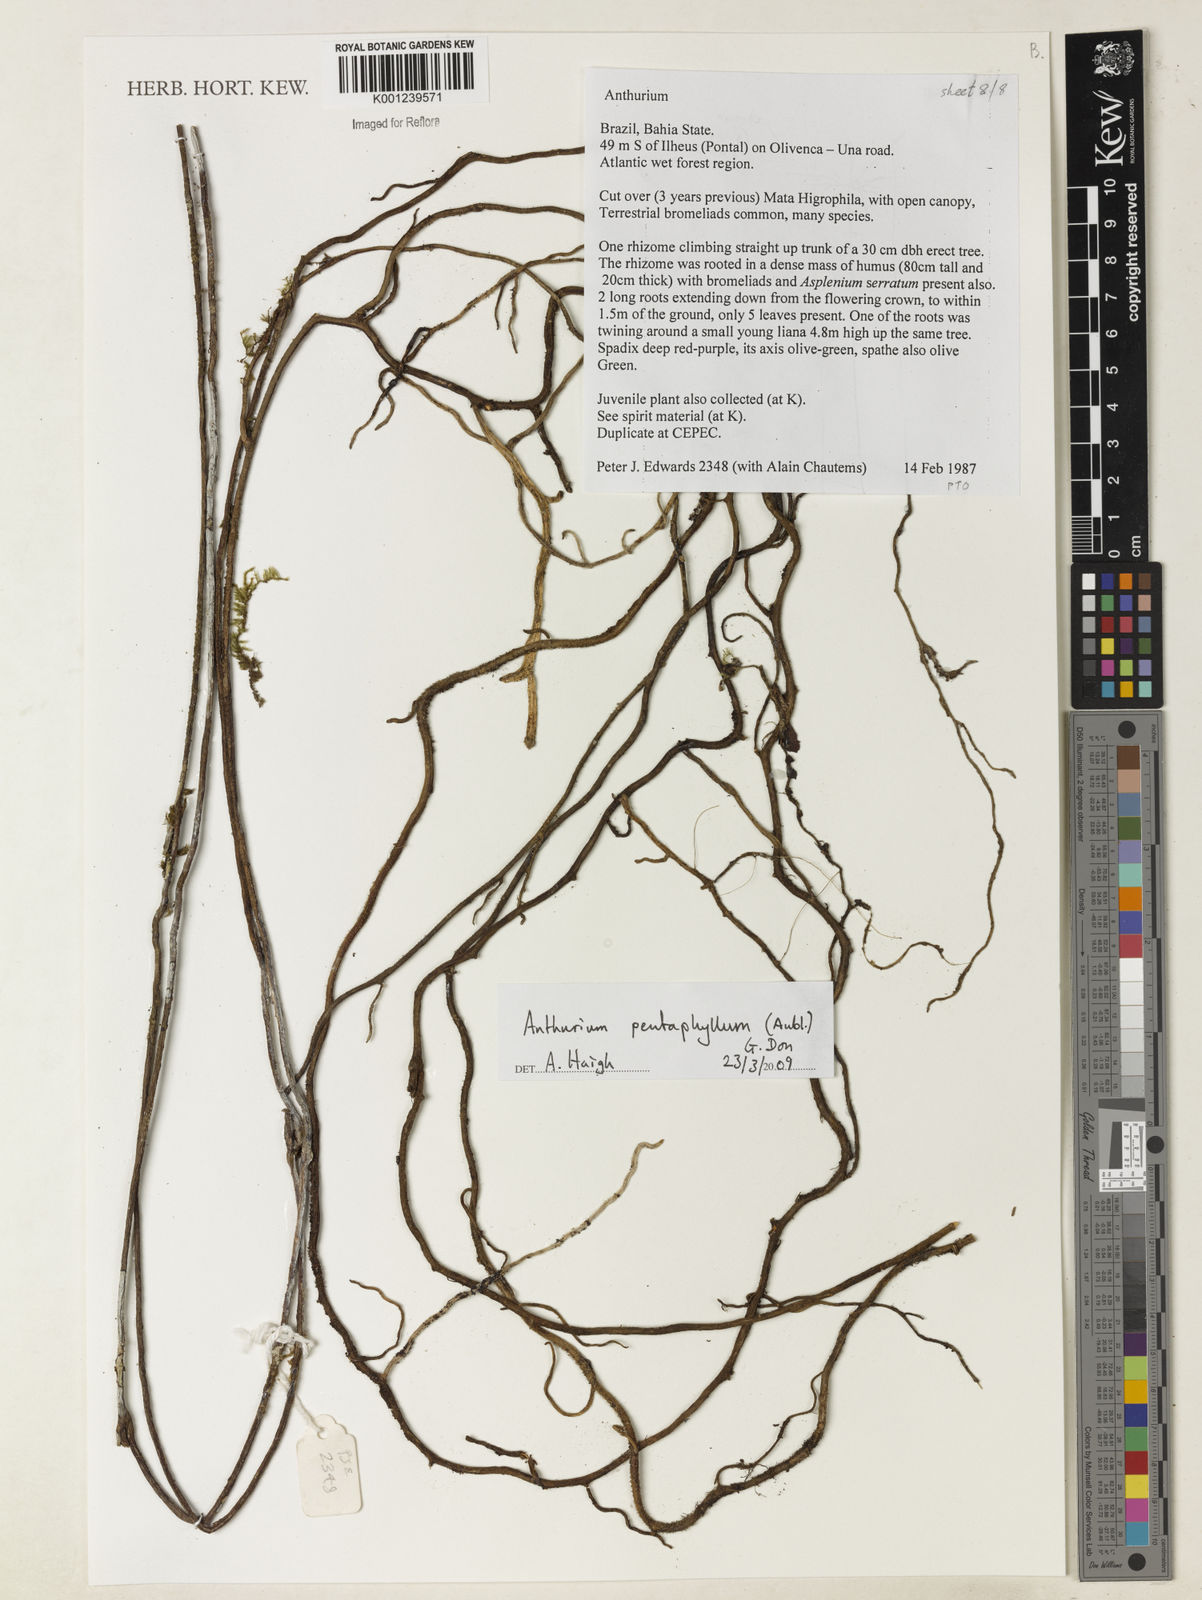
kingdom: Plantae
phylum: Tracheophyta
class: Liliopsida
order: Alismatales
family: Araceae
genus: Anthurium
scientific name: Anthurium pentaphyllum
